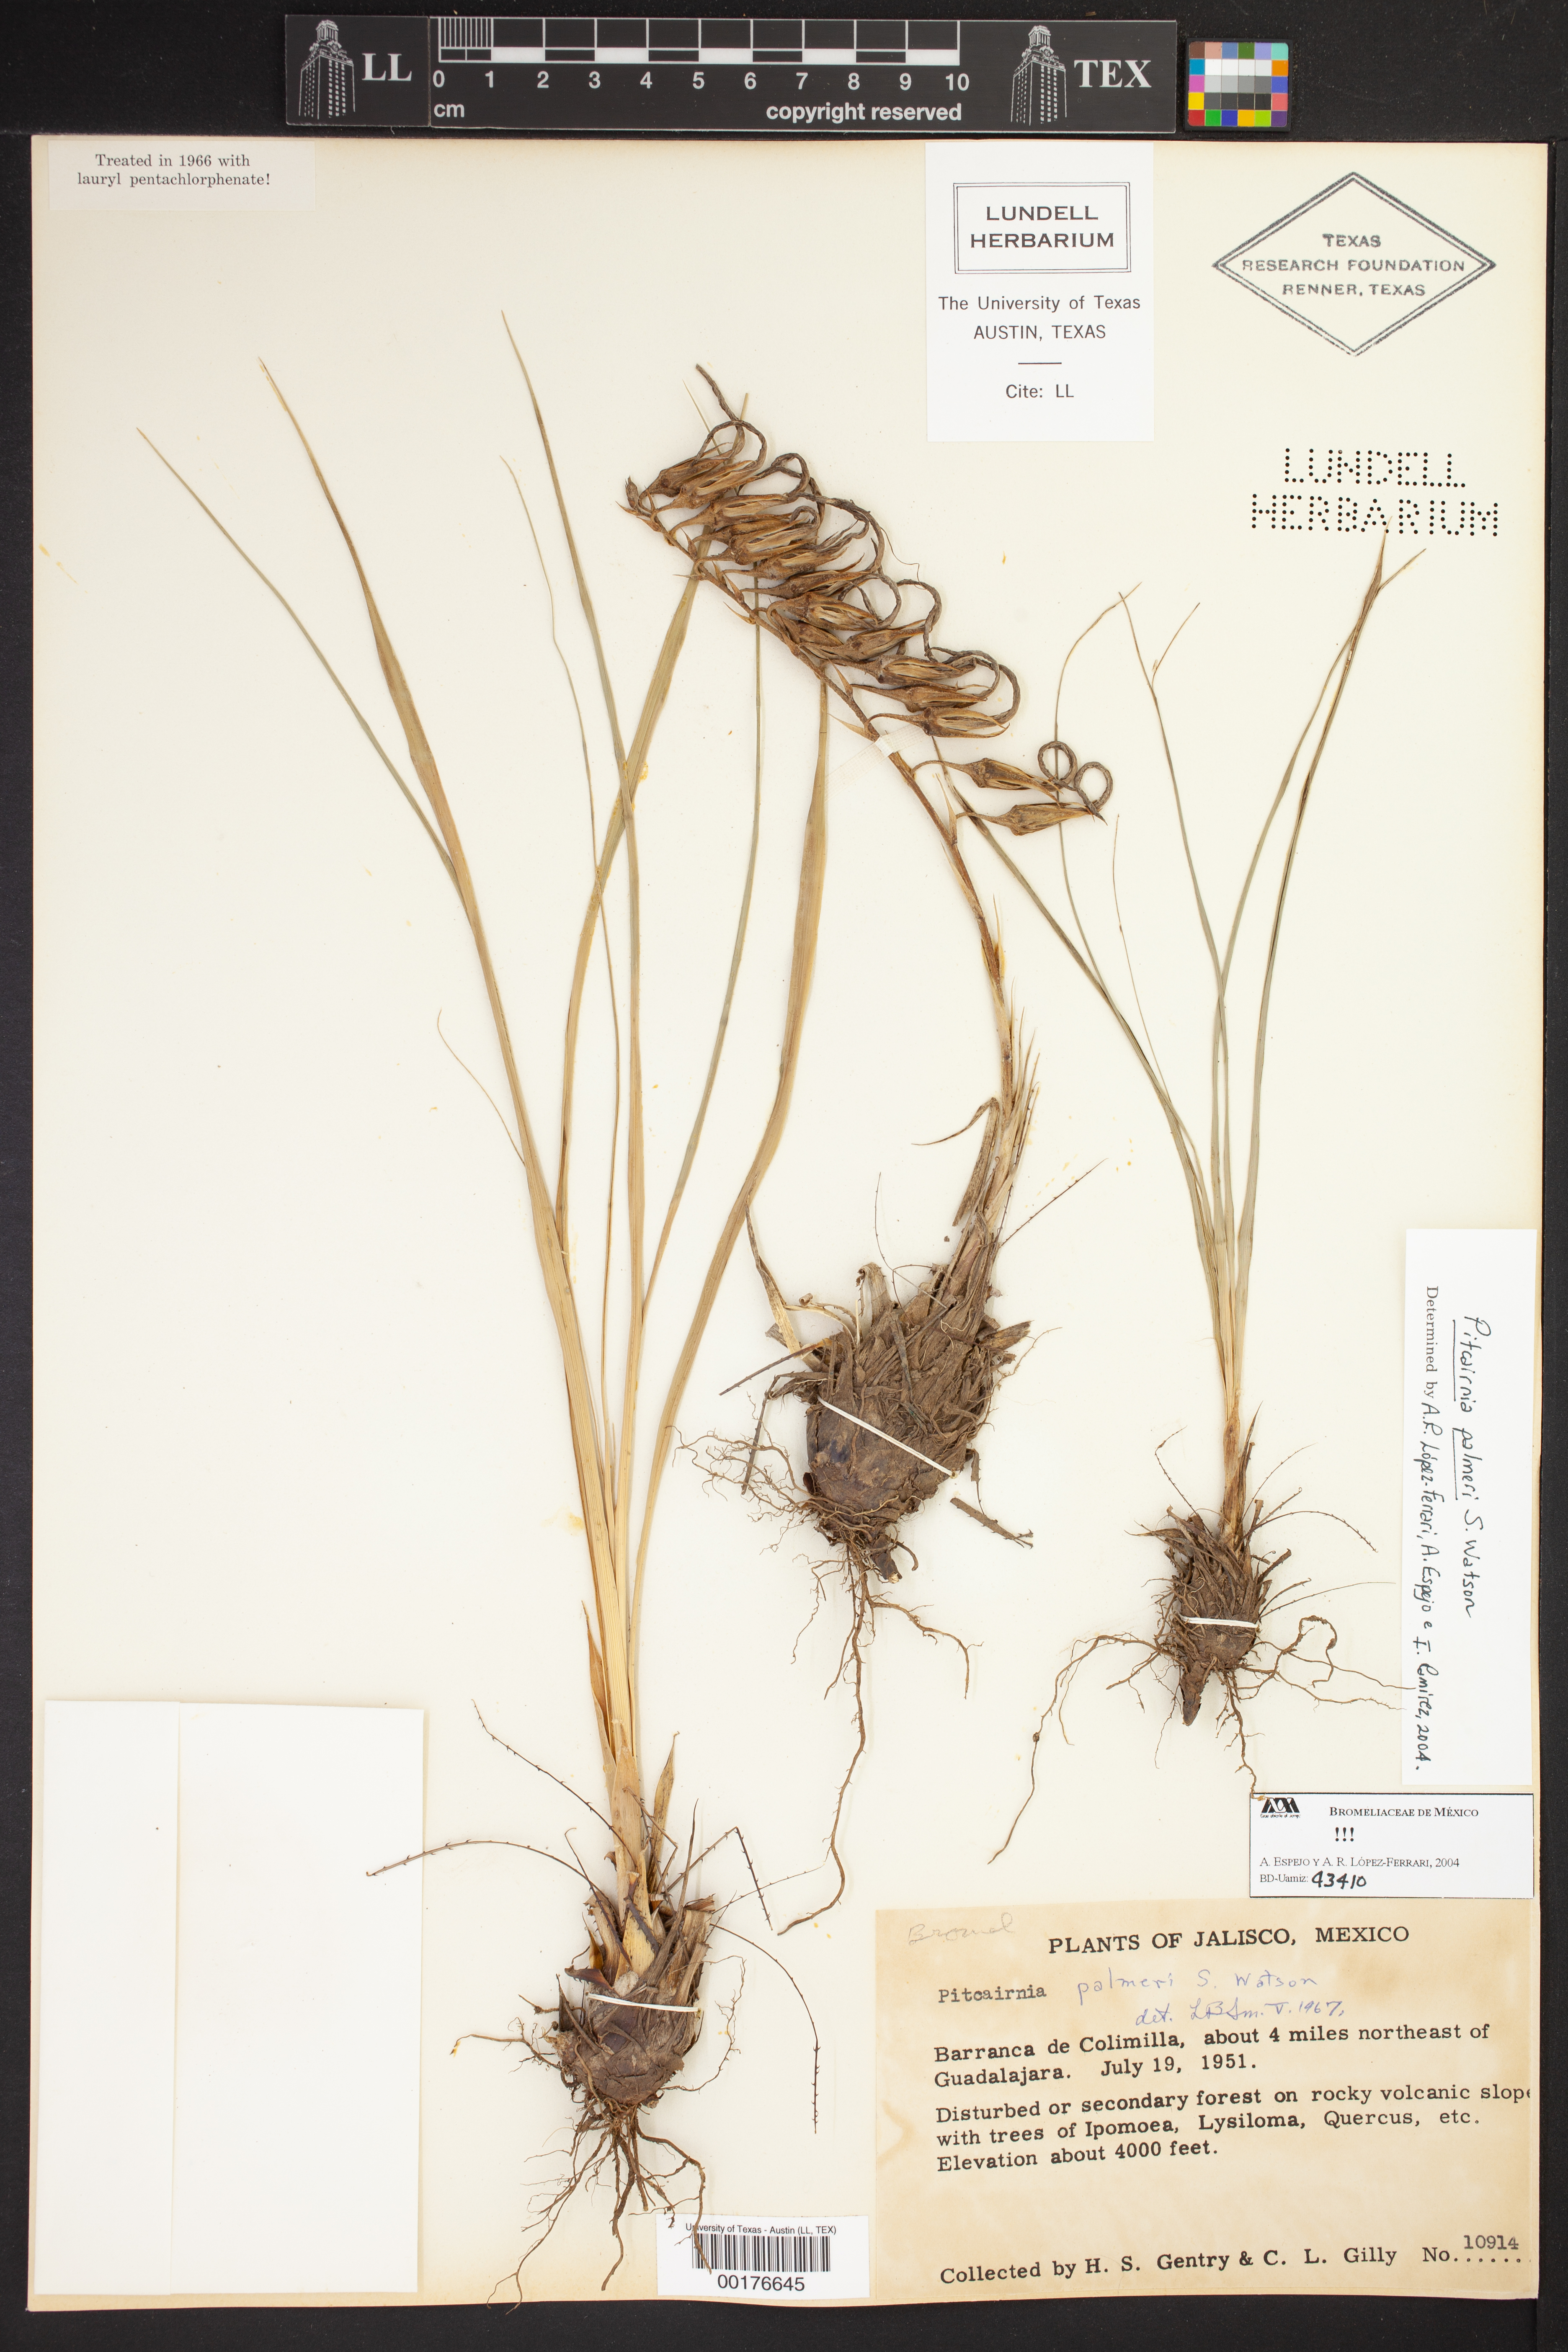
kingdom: Plantae
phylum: Tracheophyta
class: Liliopsida
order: Poales
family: Bromeliaceae
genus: Pitcairnia
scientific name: Pitcairnia palmeri
